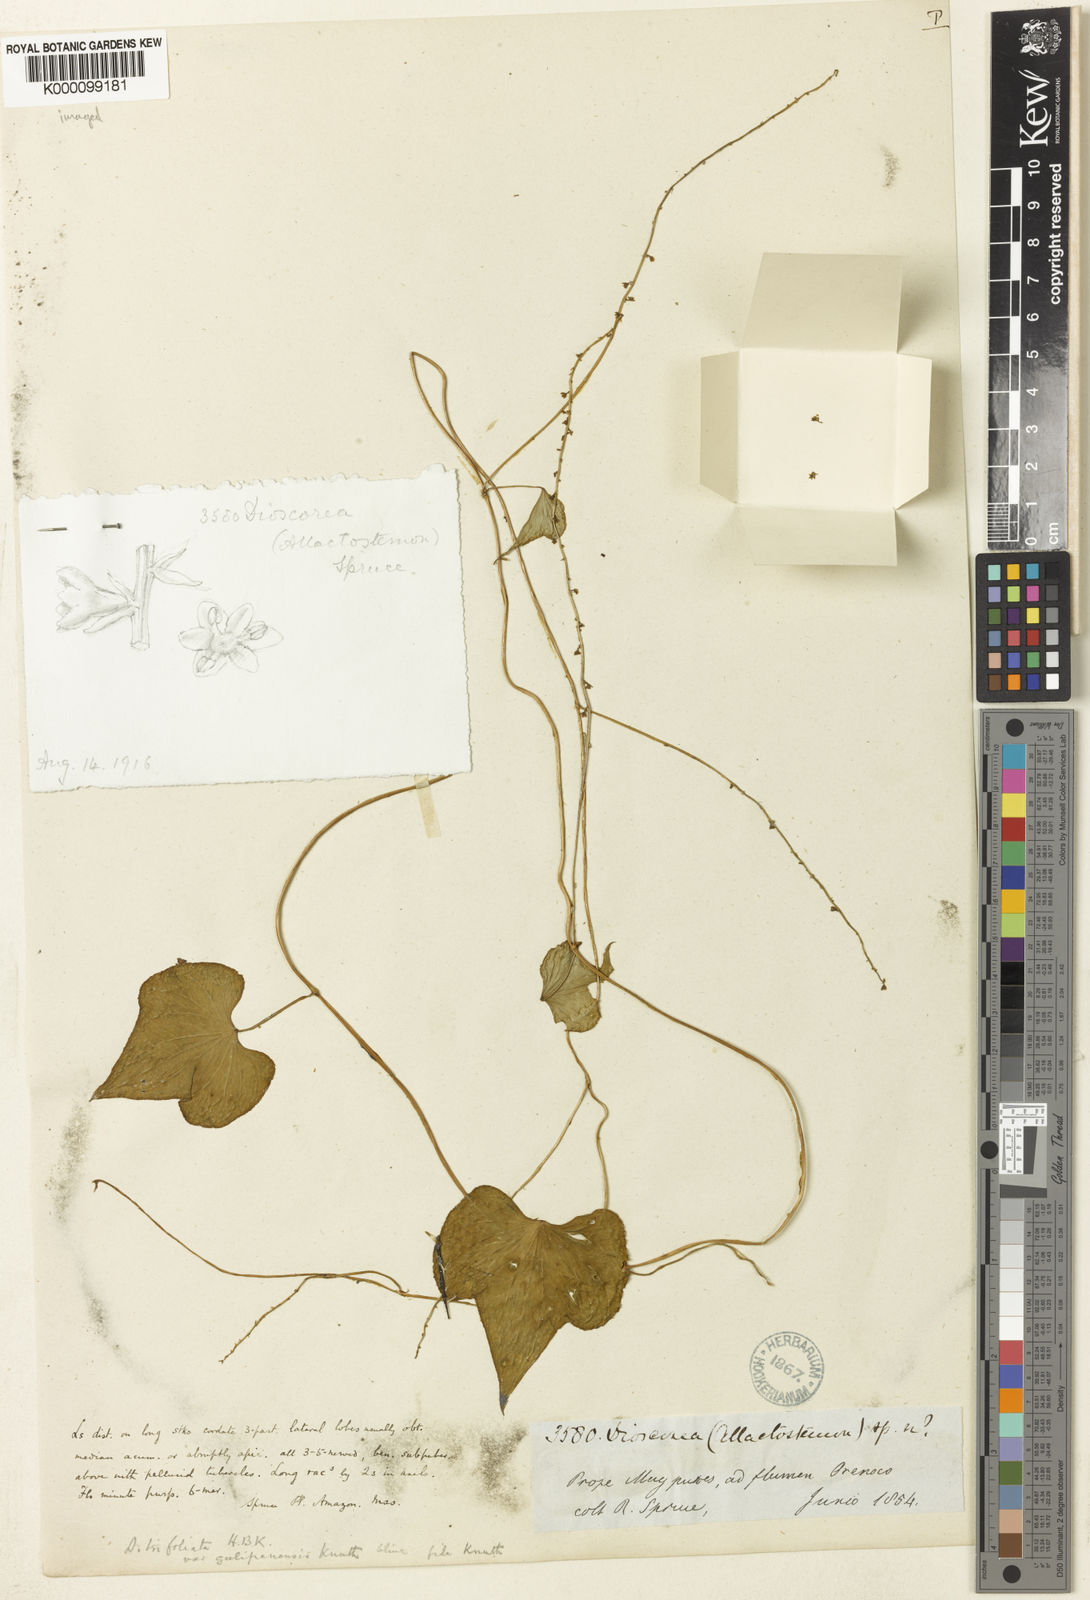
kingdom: Plantae
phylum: Tracheophyta
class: Liliopsida
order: Dioscoreales
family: Dioscoreaceae
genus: Dioscorea
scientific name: Dioscorea quartiniana
